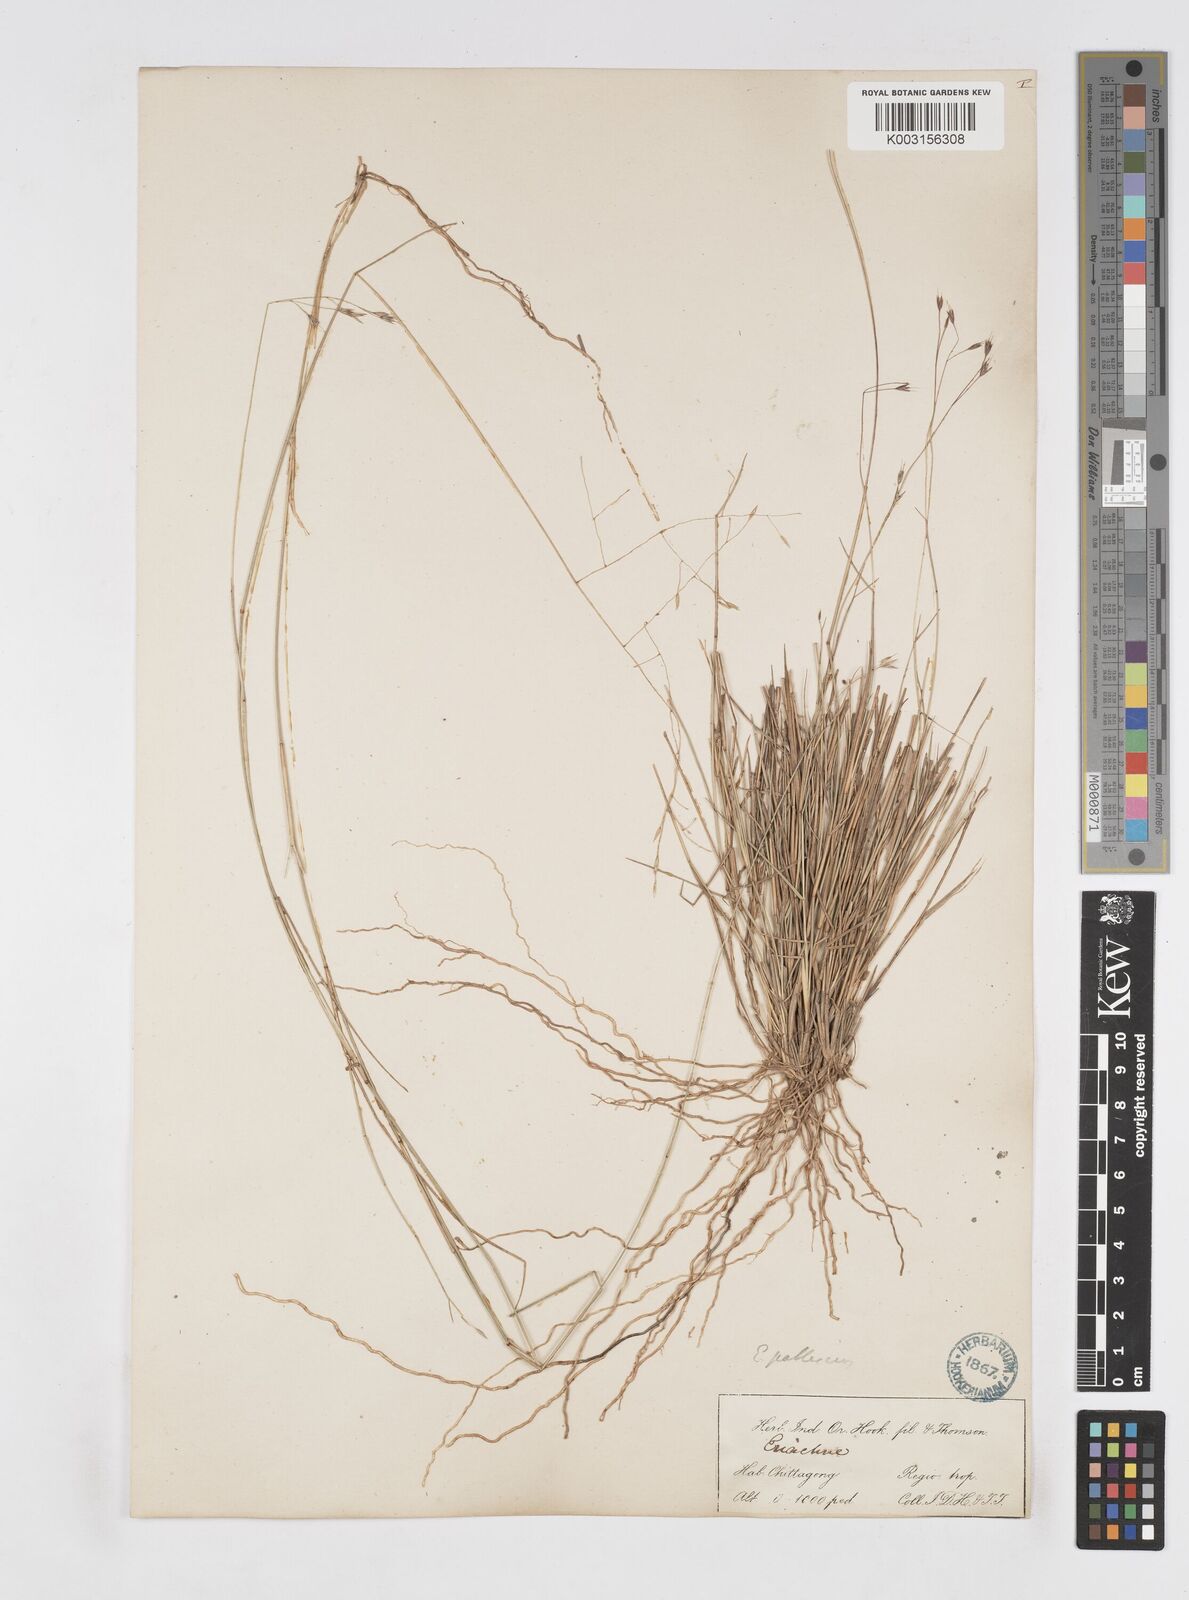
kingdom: Plantae
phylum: Tracheophyta
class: Liliopsida
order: Poales
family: Poaceae
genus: Eriachne
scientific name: Eriachne pallescens
